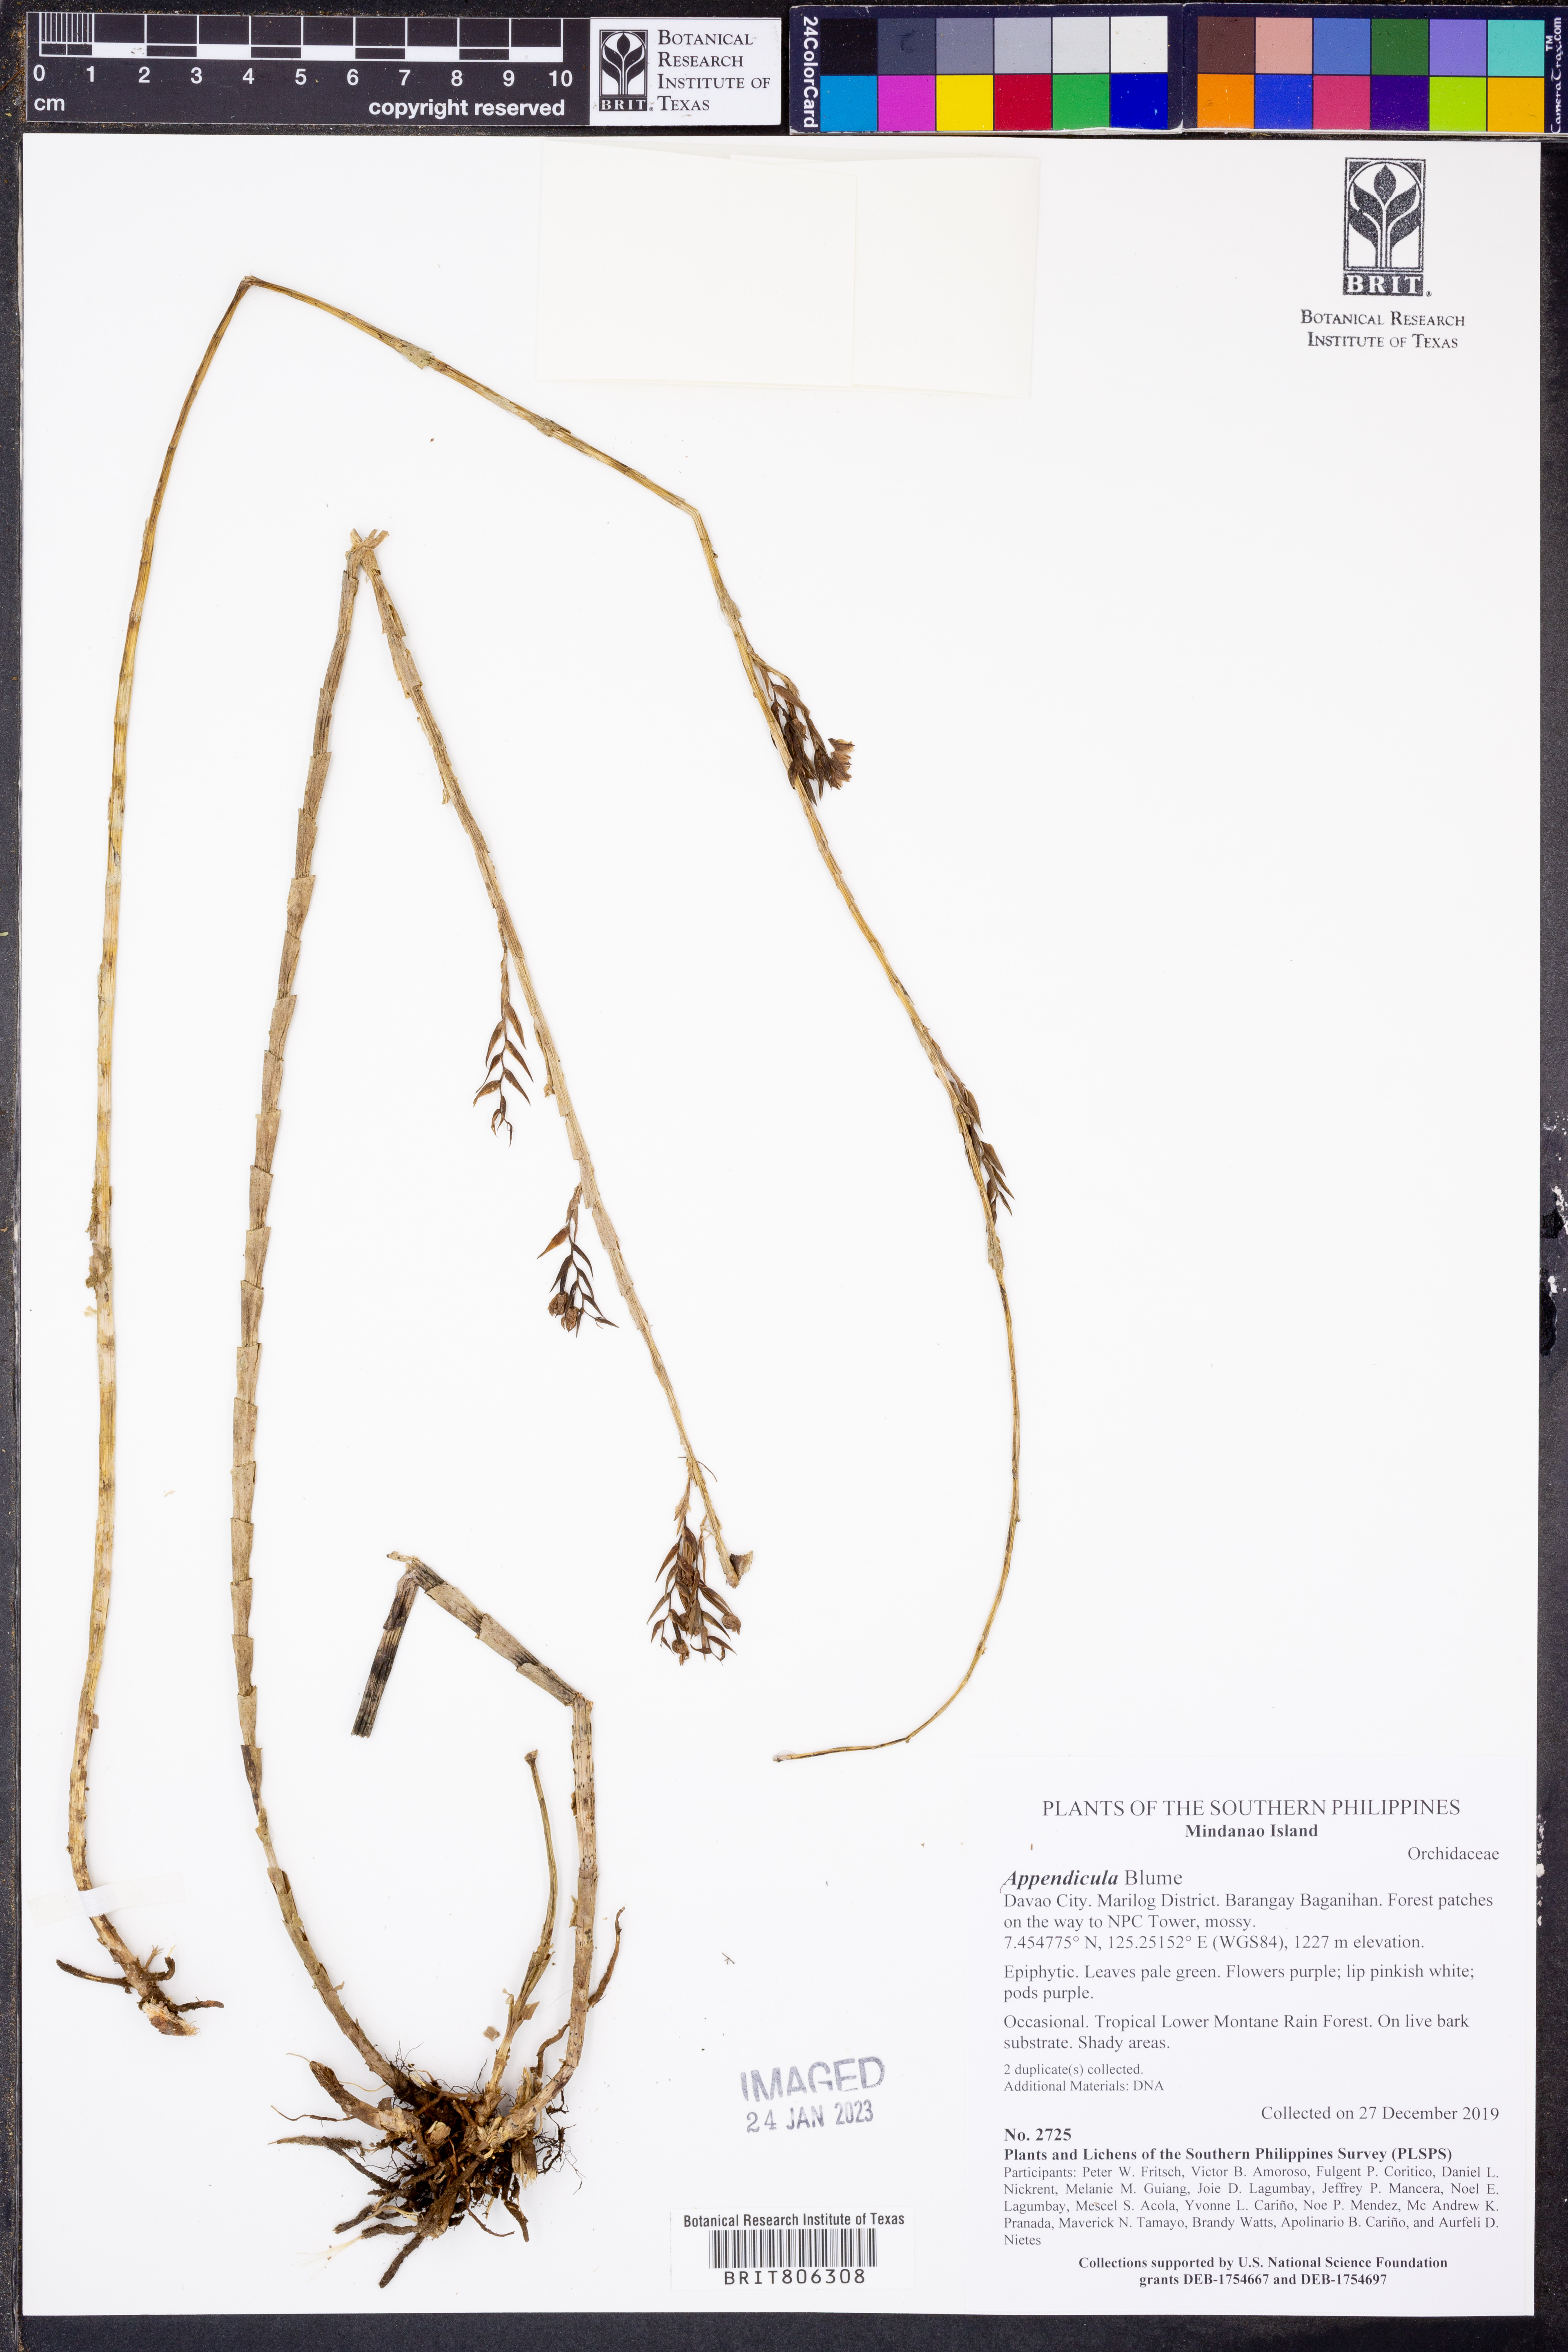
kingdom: Plantae
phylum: Tracheophyta
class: Liliopsida
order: Asparagales
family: Orchidaceae
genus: Appendicula
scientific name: Appendicula
